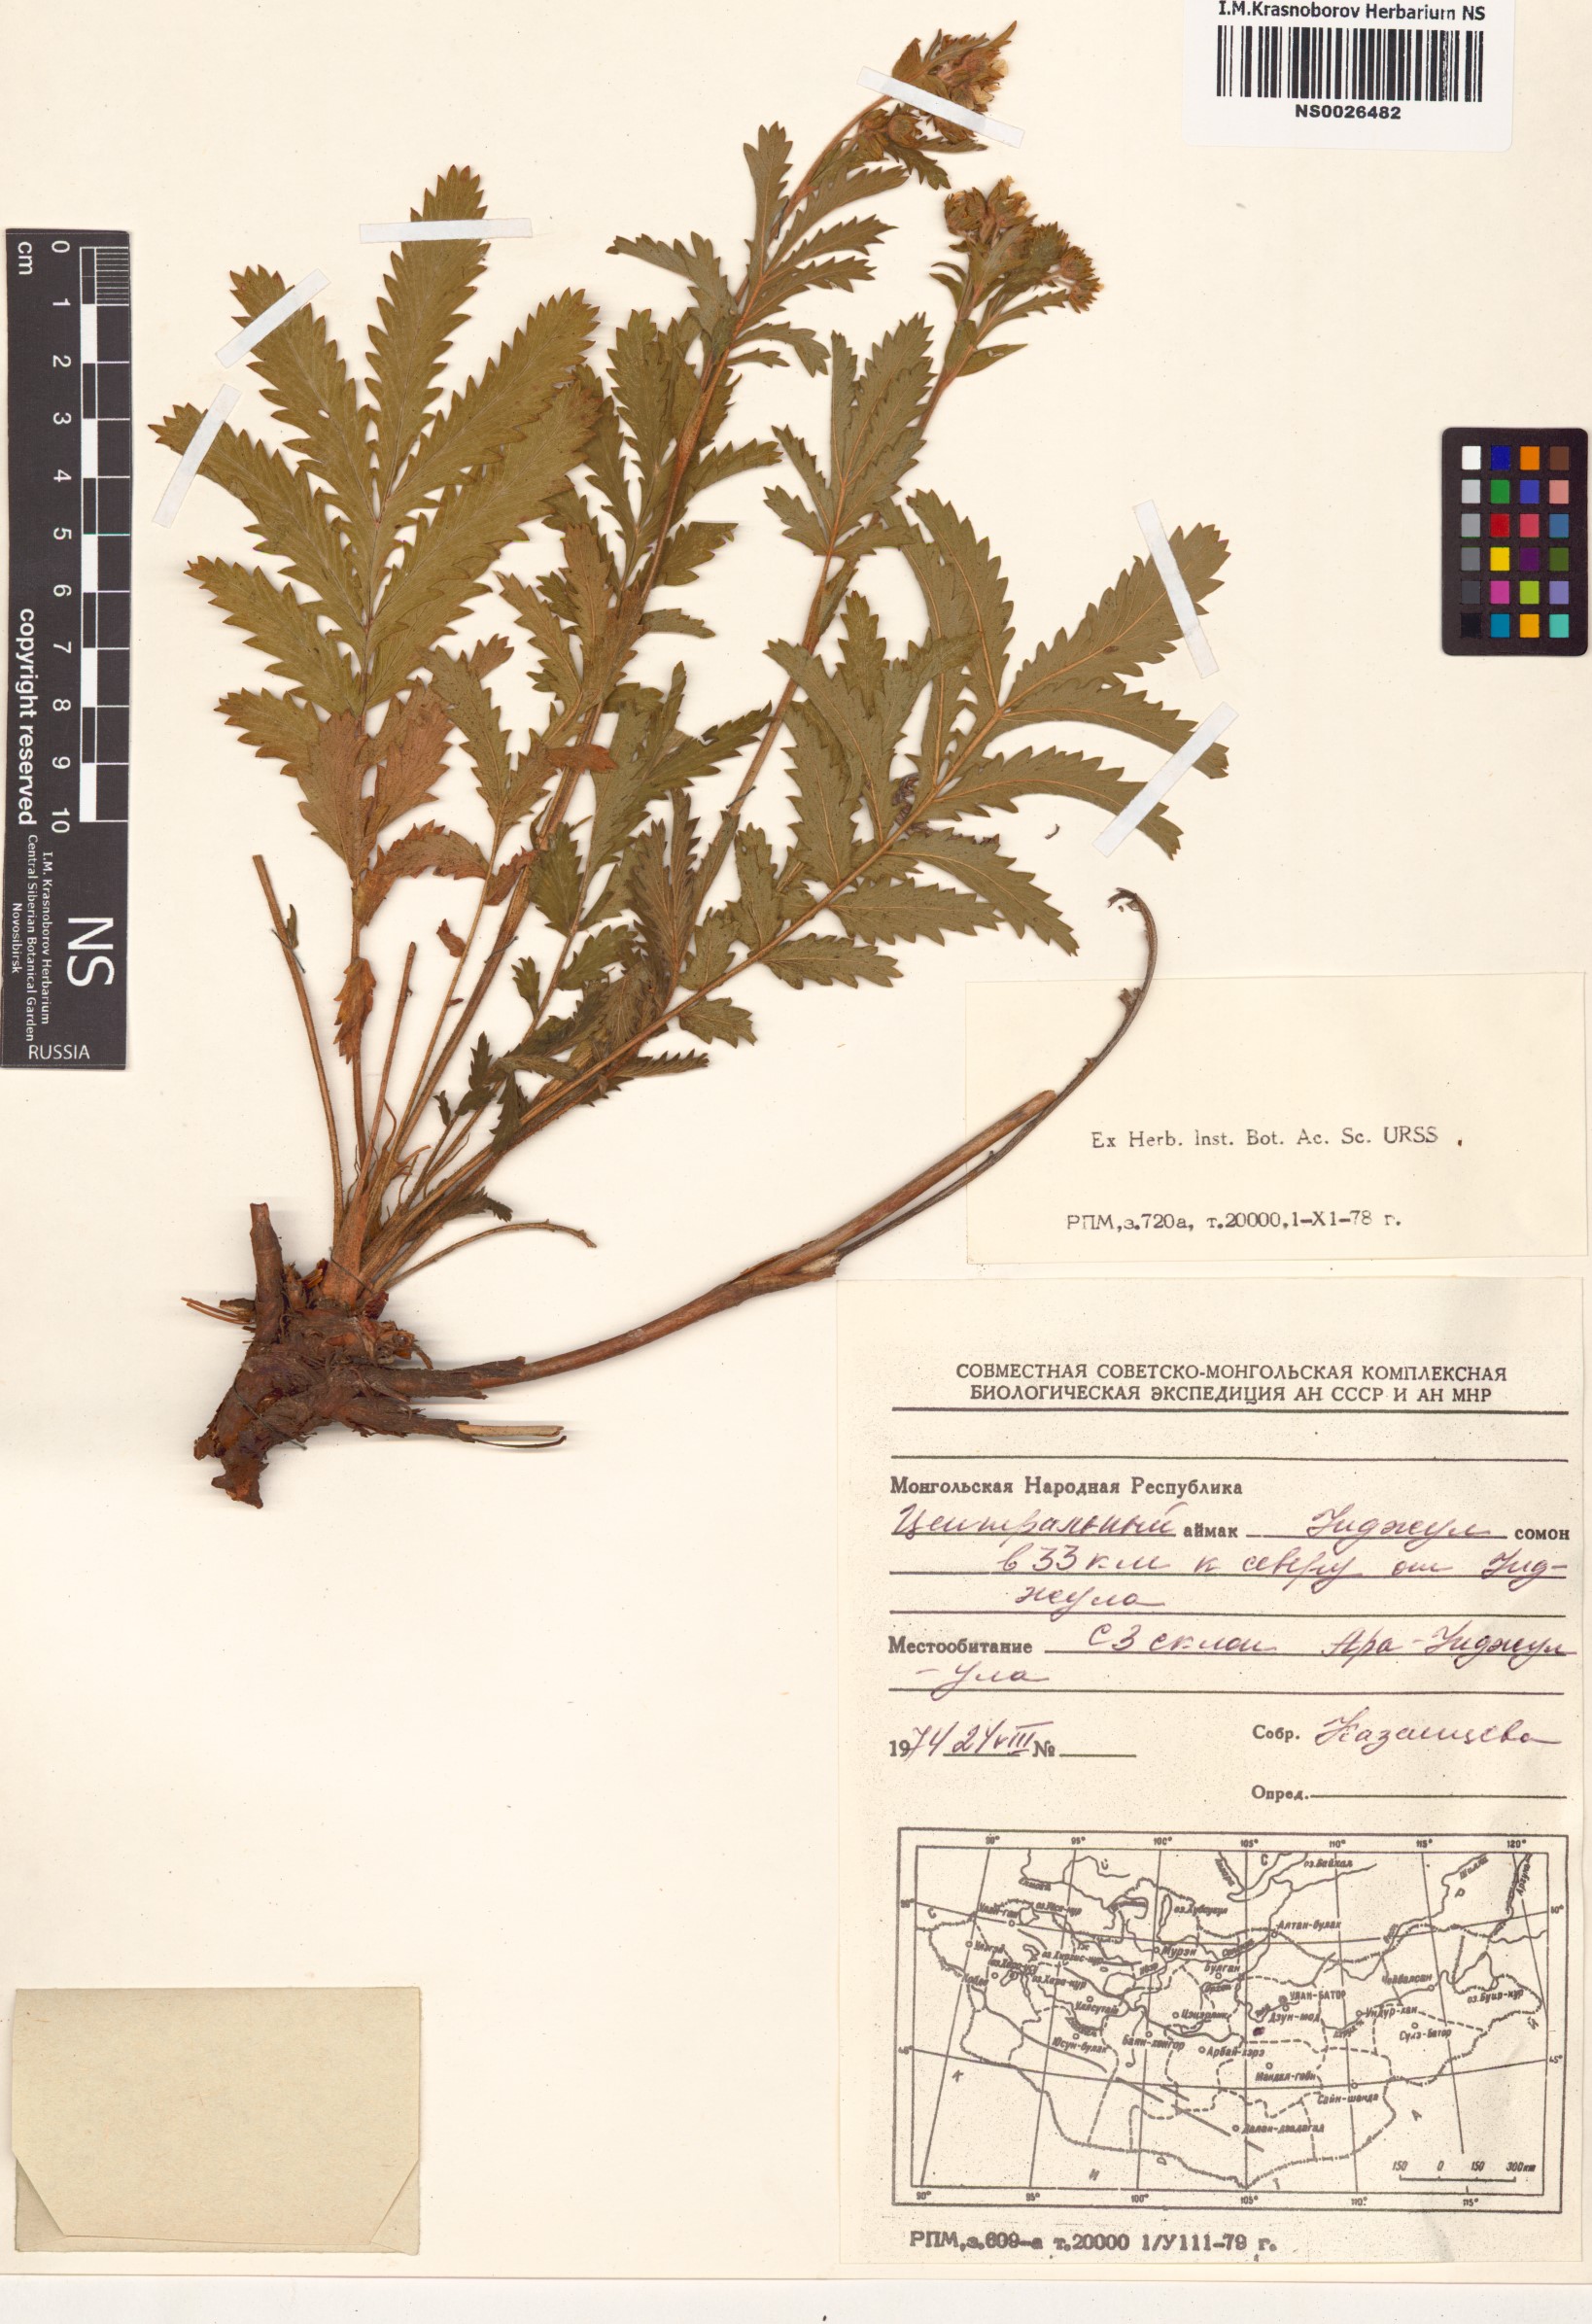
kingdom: Plantae
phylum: Tracheophyta
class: Magnoliopsida
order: Rosales
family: Rosaceae
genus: Potentilla
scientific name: Potentilla tanacetifolia
